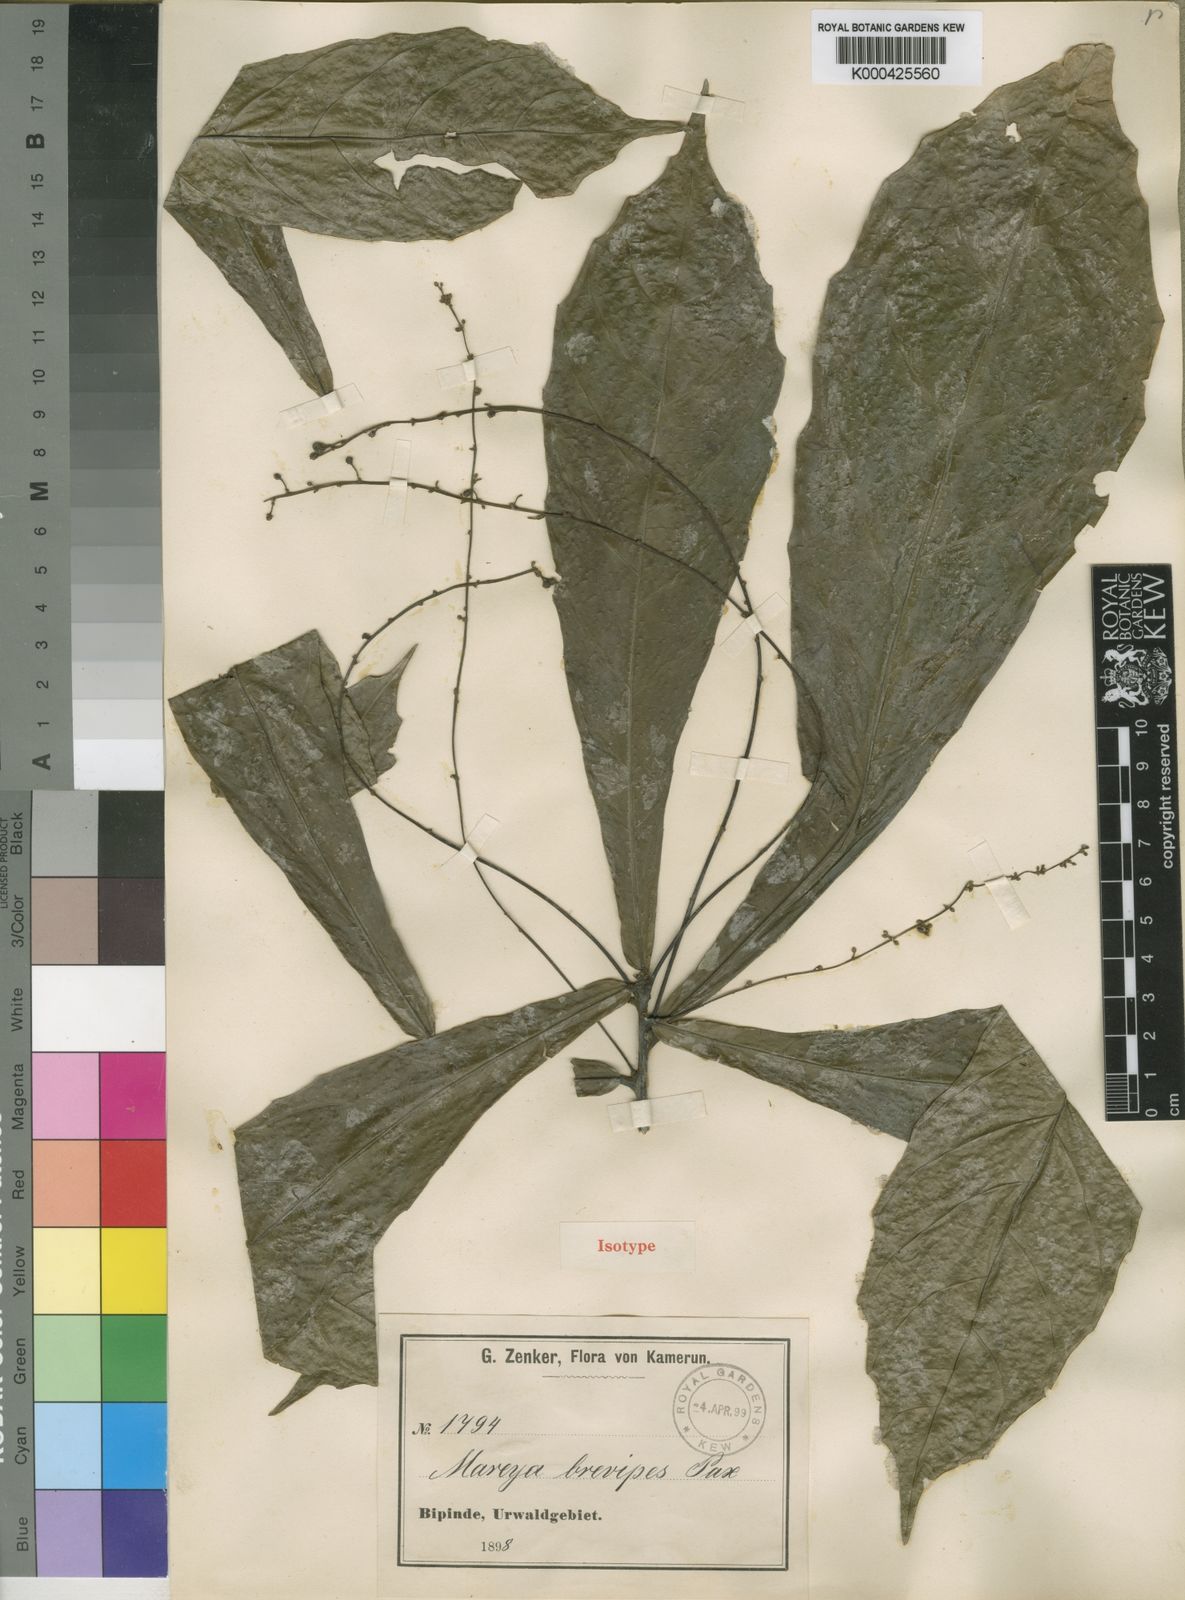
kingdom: Plantae
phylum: Tracheophyta
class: Magnoliopsida
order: Malpighiales
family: Euphorbiaceae
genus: Mareya
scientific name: Mareya brevipes
